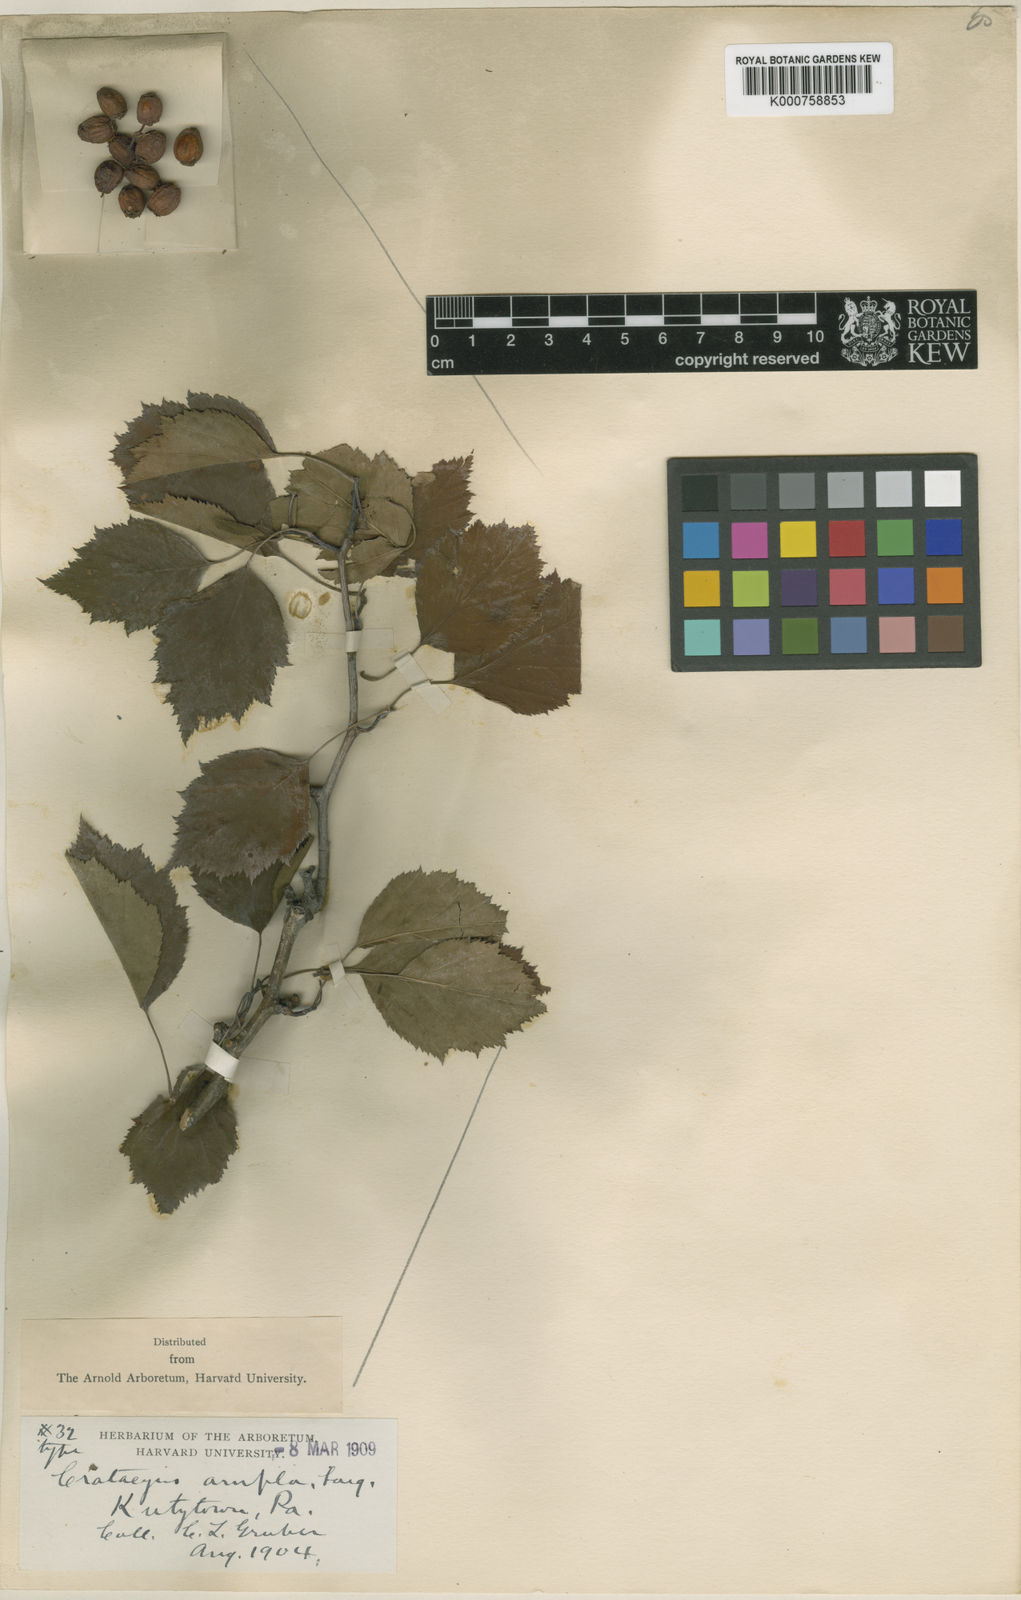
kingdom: Plantae
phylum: Tracheophyta
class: Magnoliopsida
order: Rosales
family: Rosaceae
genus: Crataegus
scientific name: Crataegus
